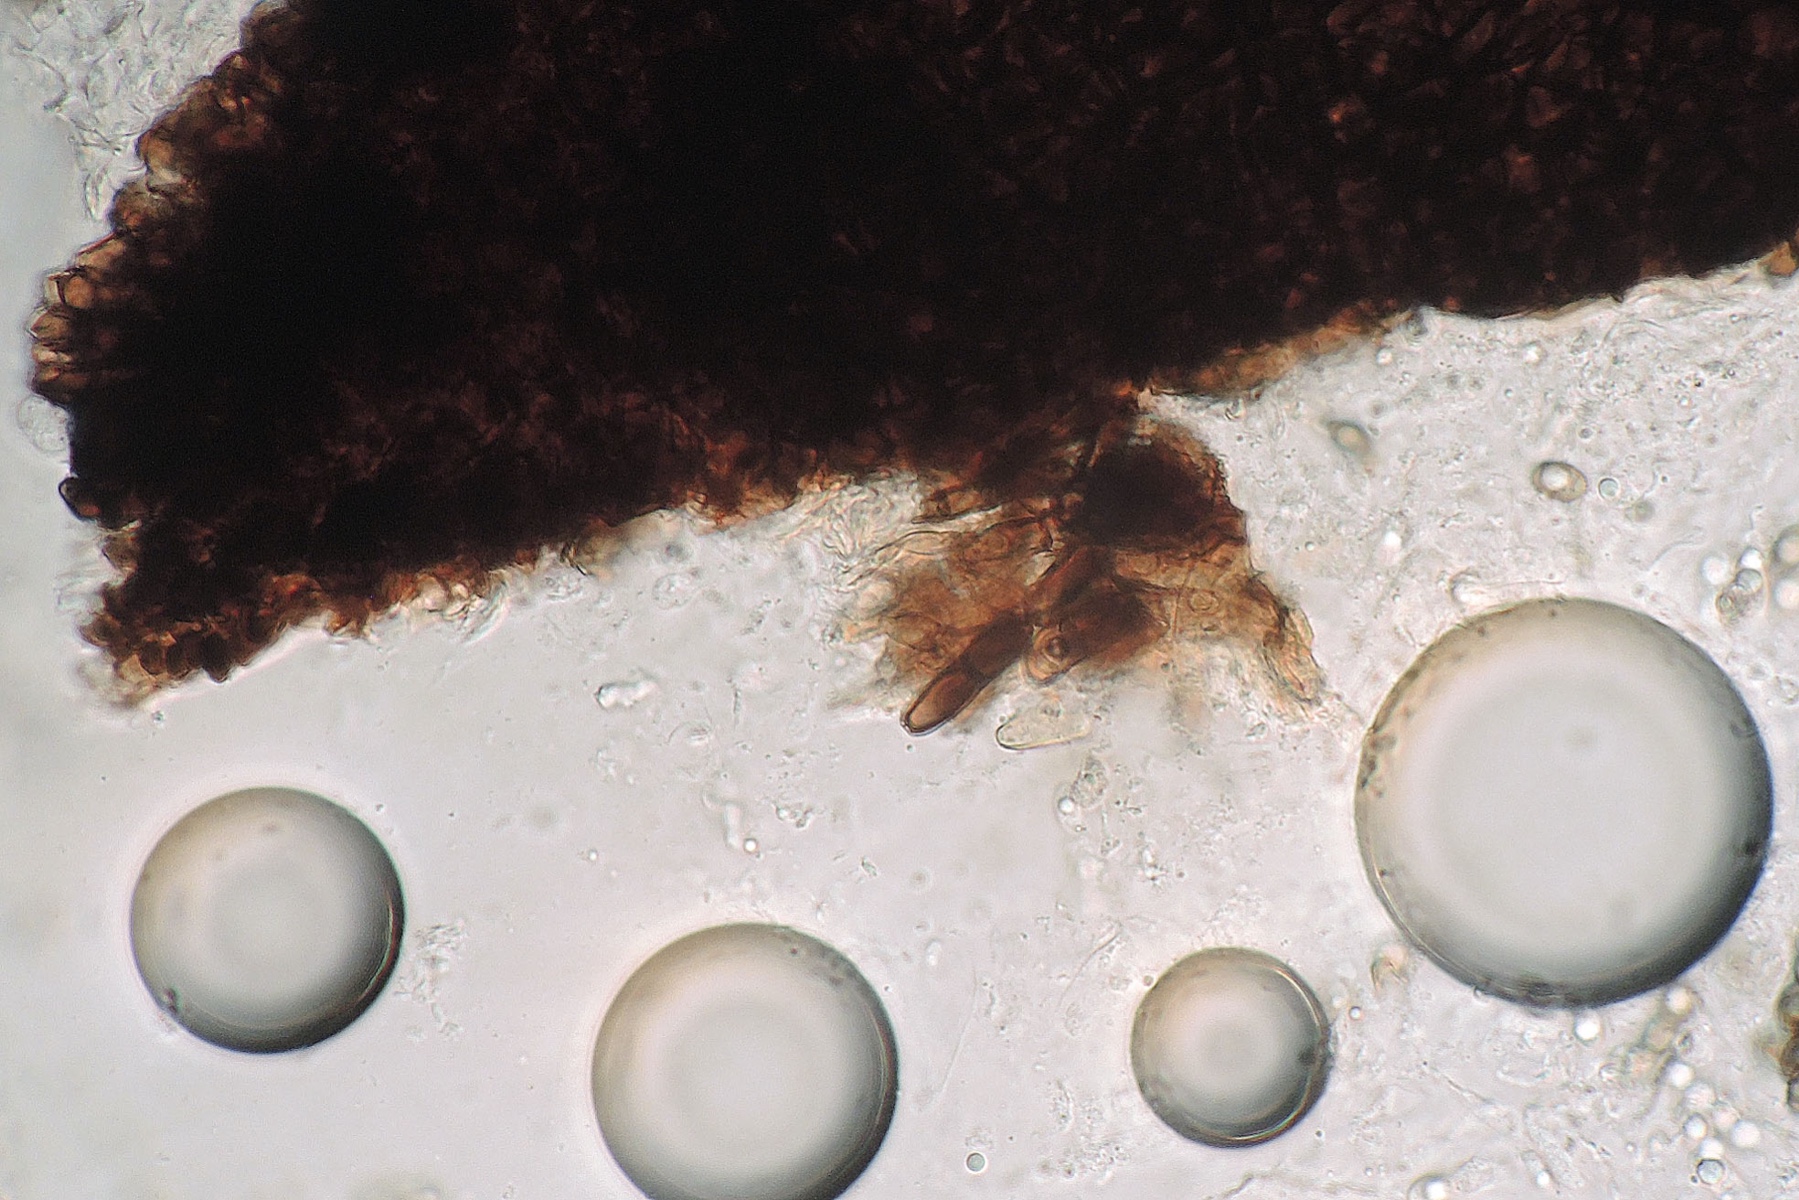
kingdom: Fungi
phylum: Ascomycota
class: Sordariomycetes
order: Sordariales
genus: Synaptospora
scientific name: Synaptospora petrakii
